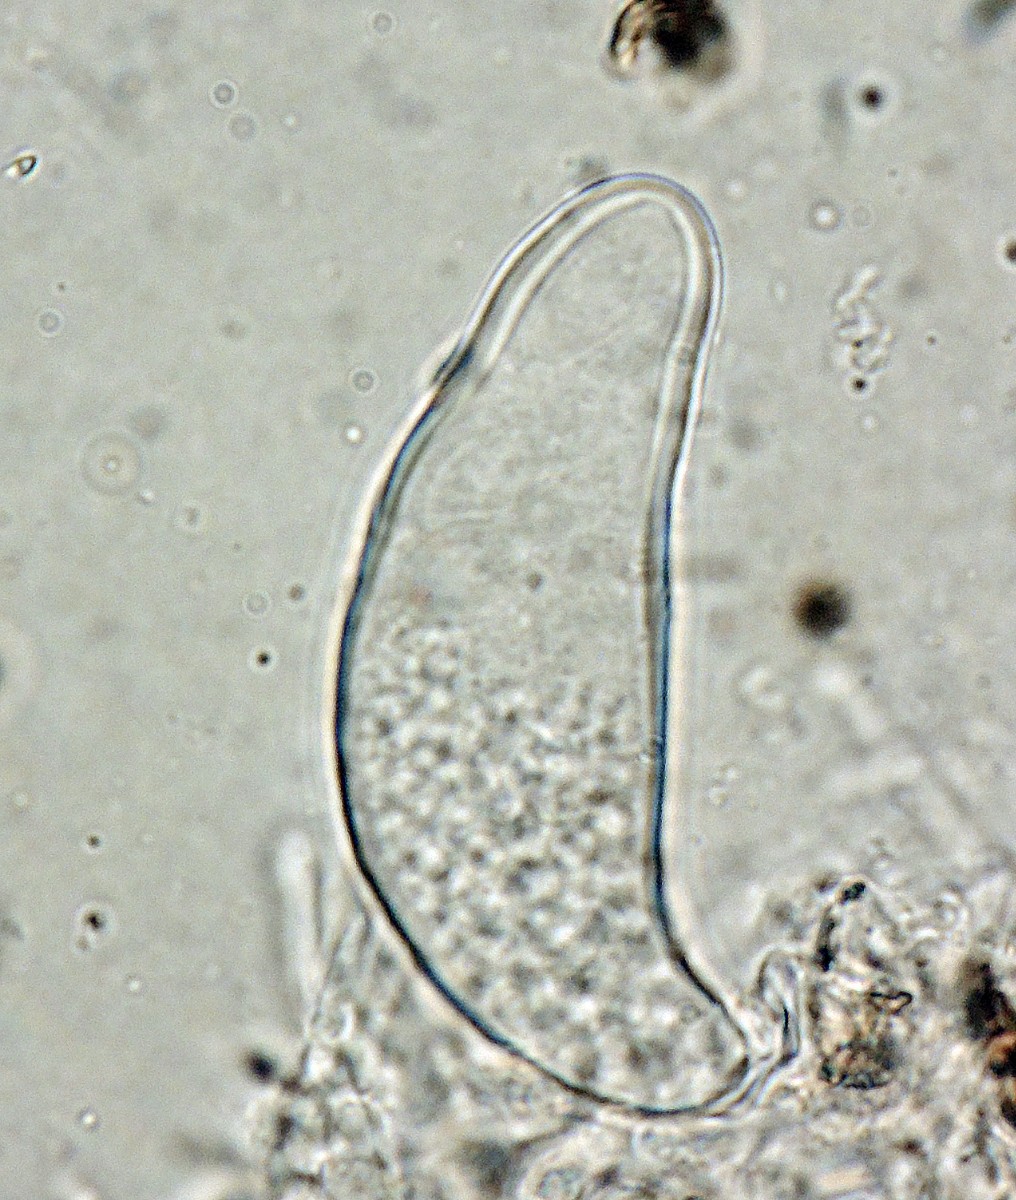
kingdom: Fungi
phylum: Ascomycota
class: Dothideomycetes
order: Microthyriales
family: Microthyriaceae
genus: Arnaudiella
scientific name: Arnaudiella empetri
